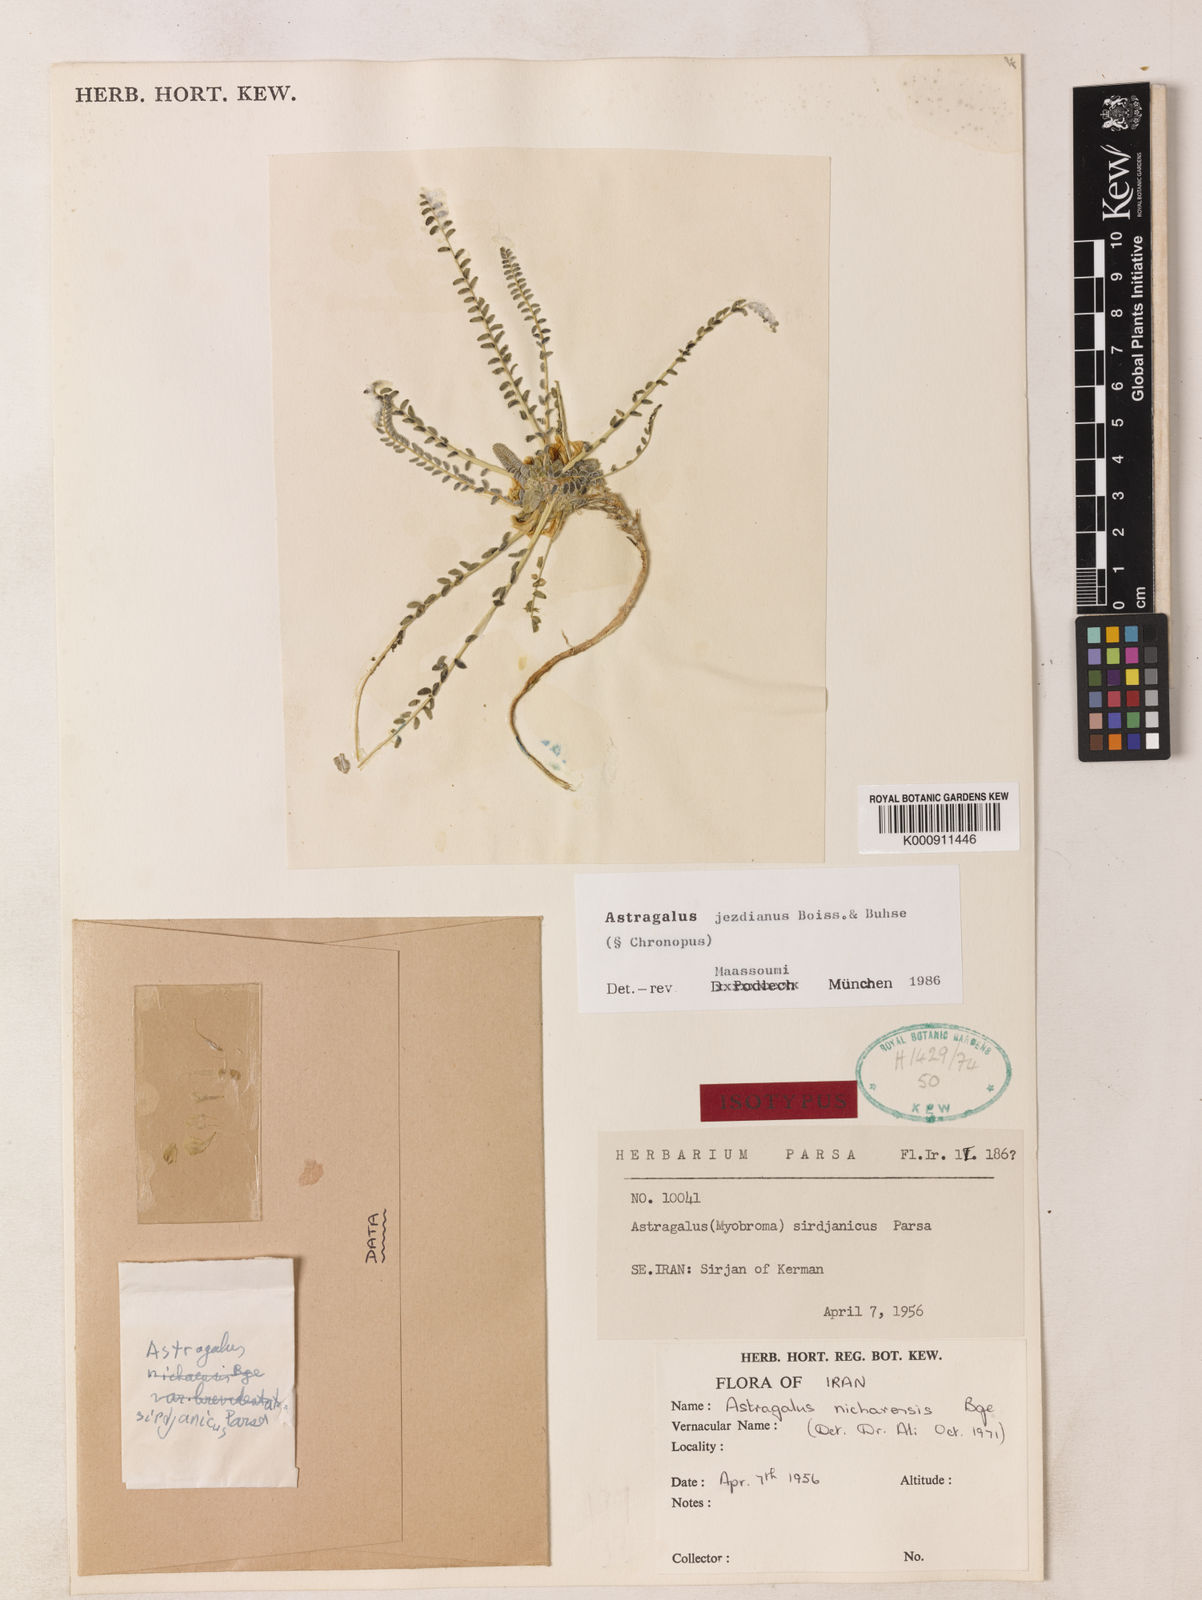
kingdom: Plantae
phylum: Tracheophyta
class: Magnoliopsida
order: Fabales
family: Fabaceae
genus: Astragalus
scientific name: Astragalus jesdianus
